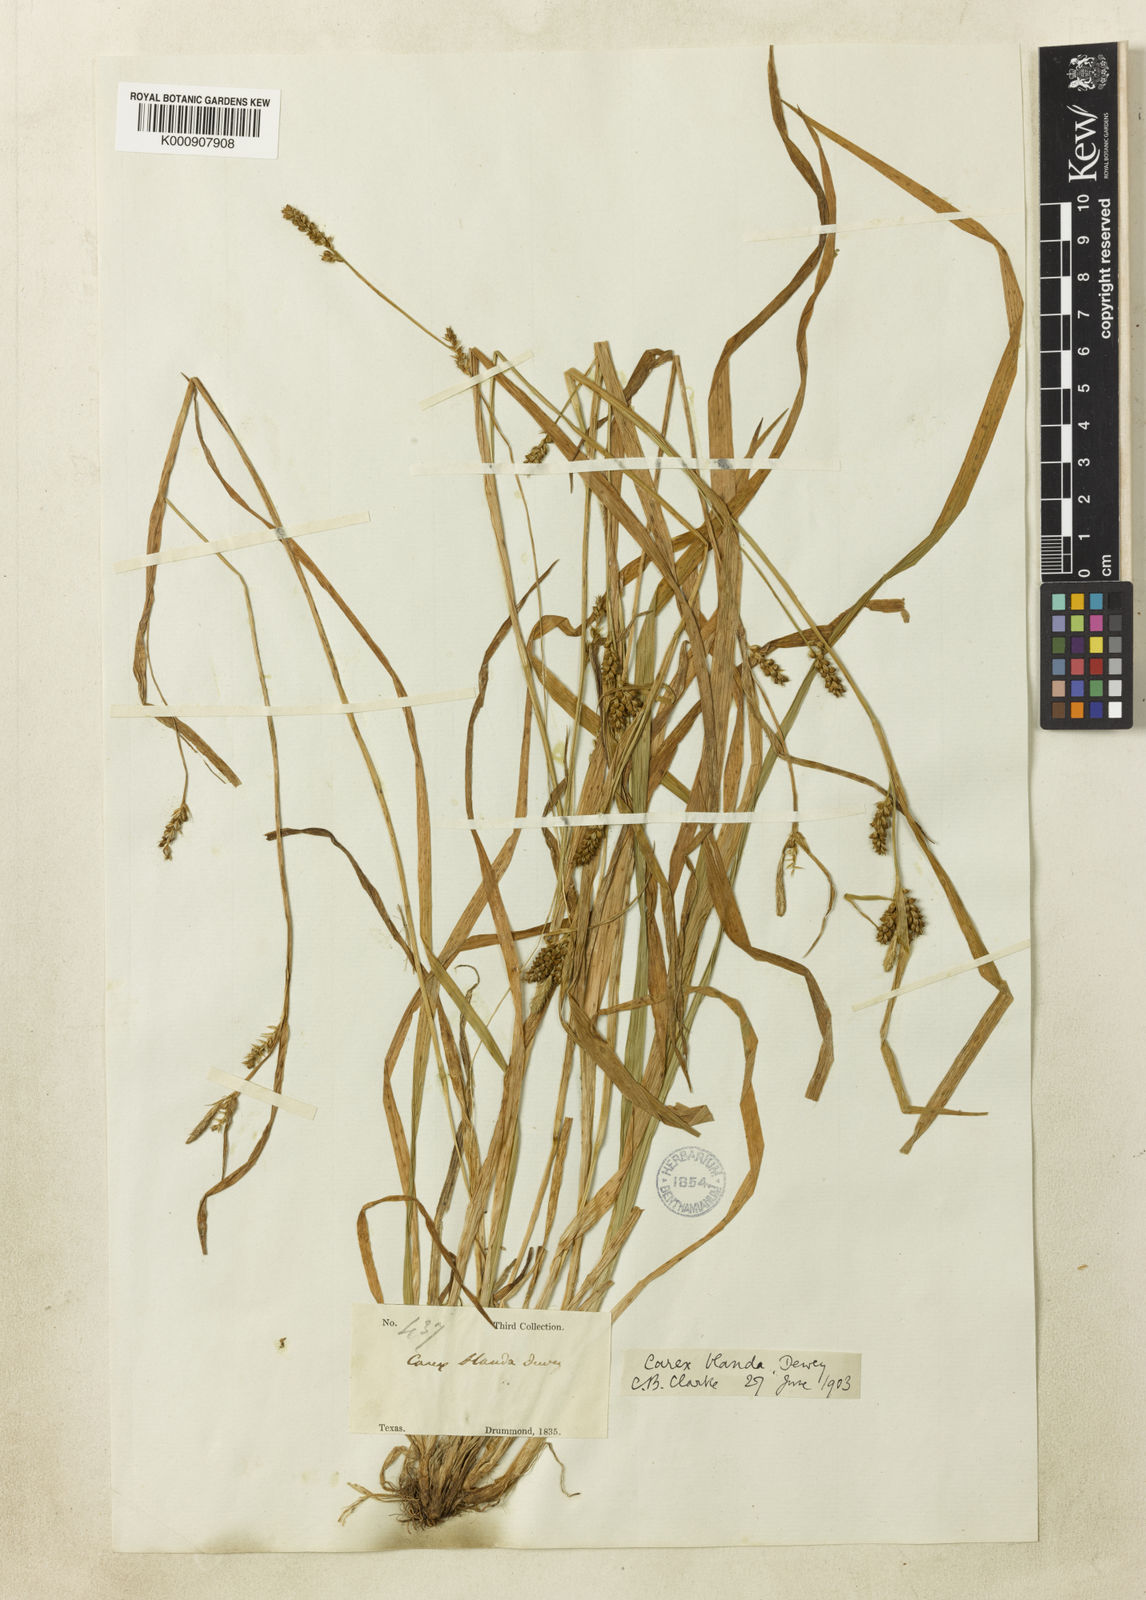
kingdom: Plantae
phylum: Tracheophyta
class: Liliopsida
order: Poales
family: Cyperaceae
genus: Carex
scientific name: Carex blanda
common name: Bland sedge
